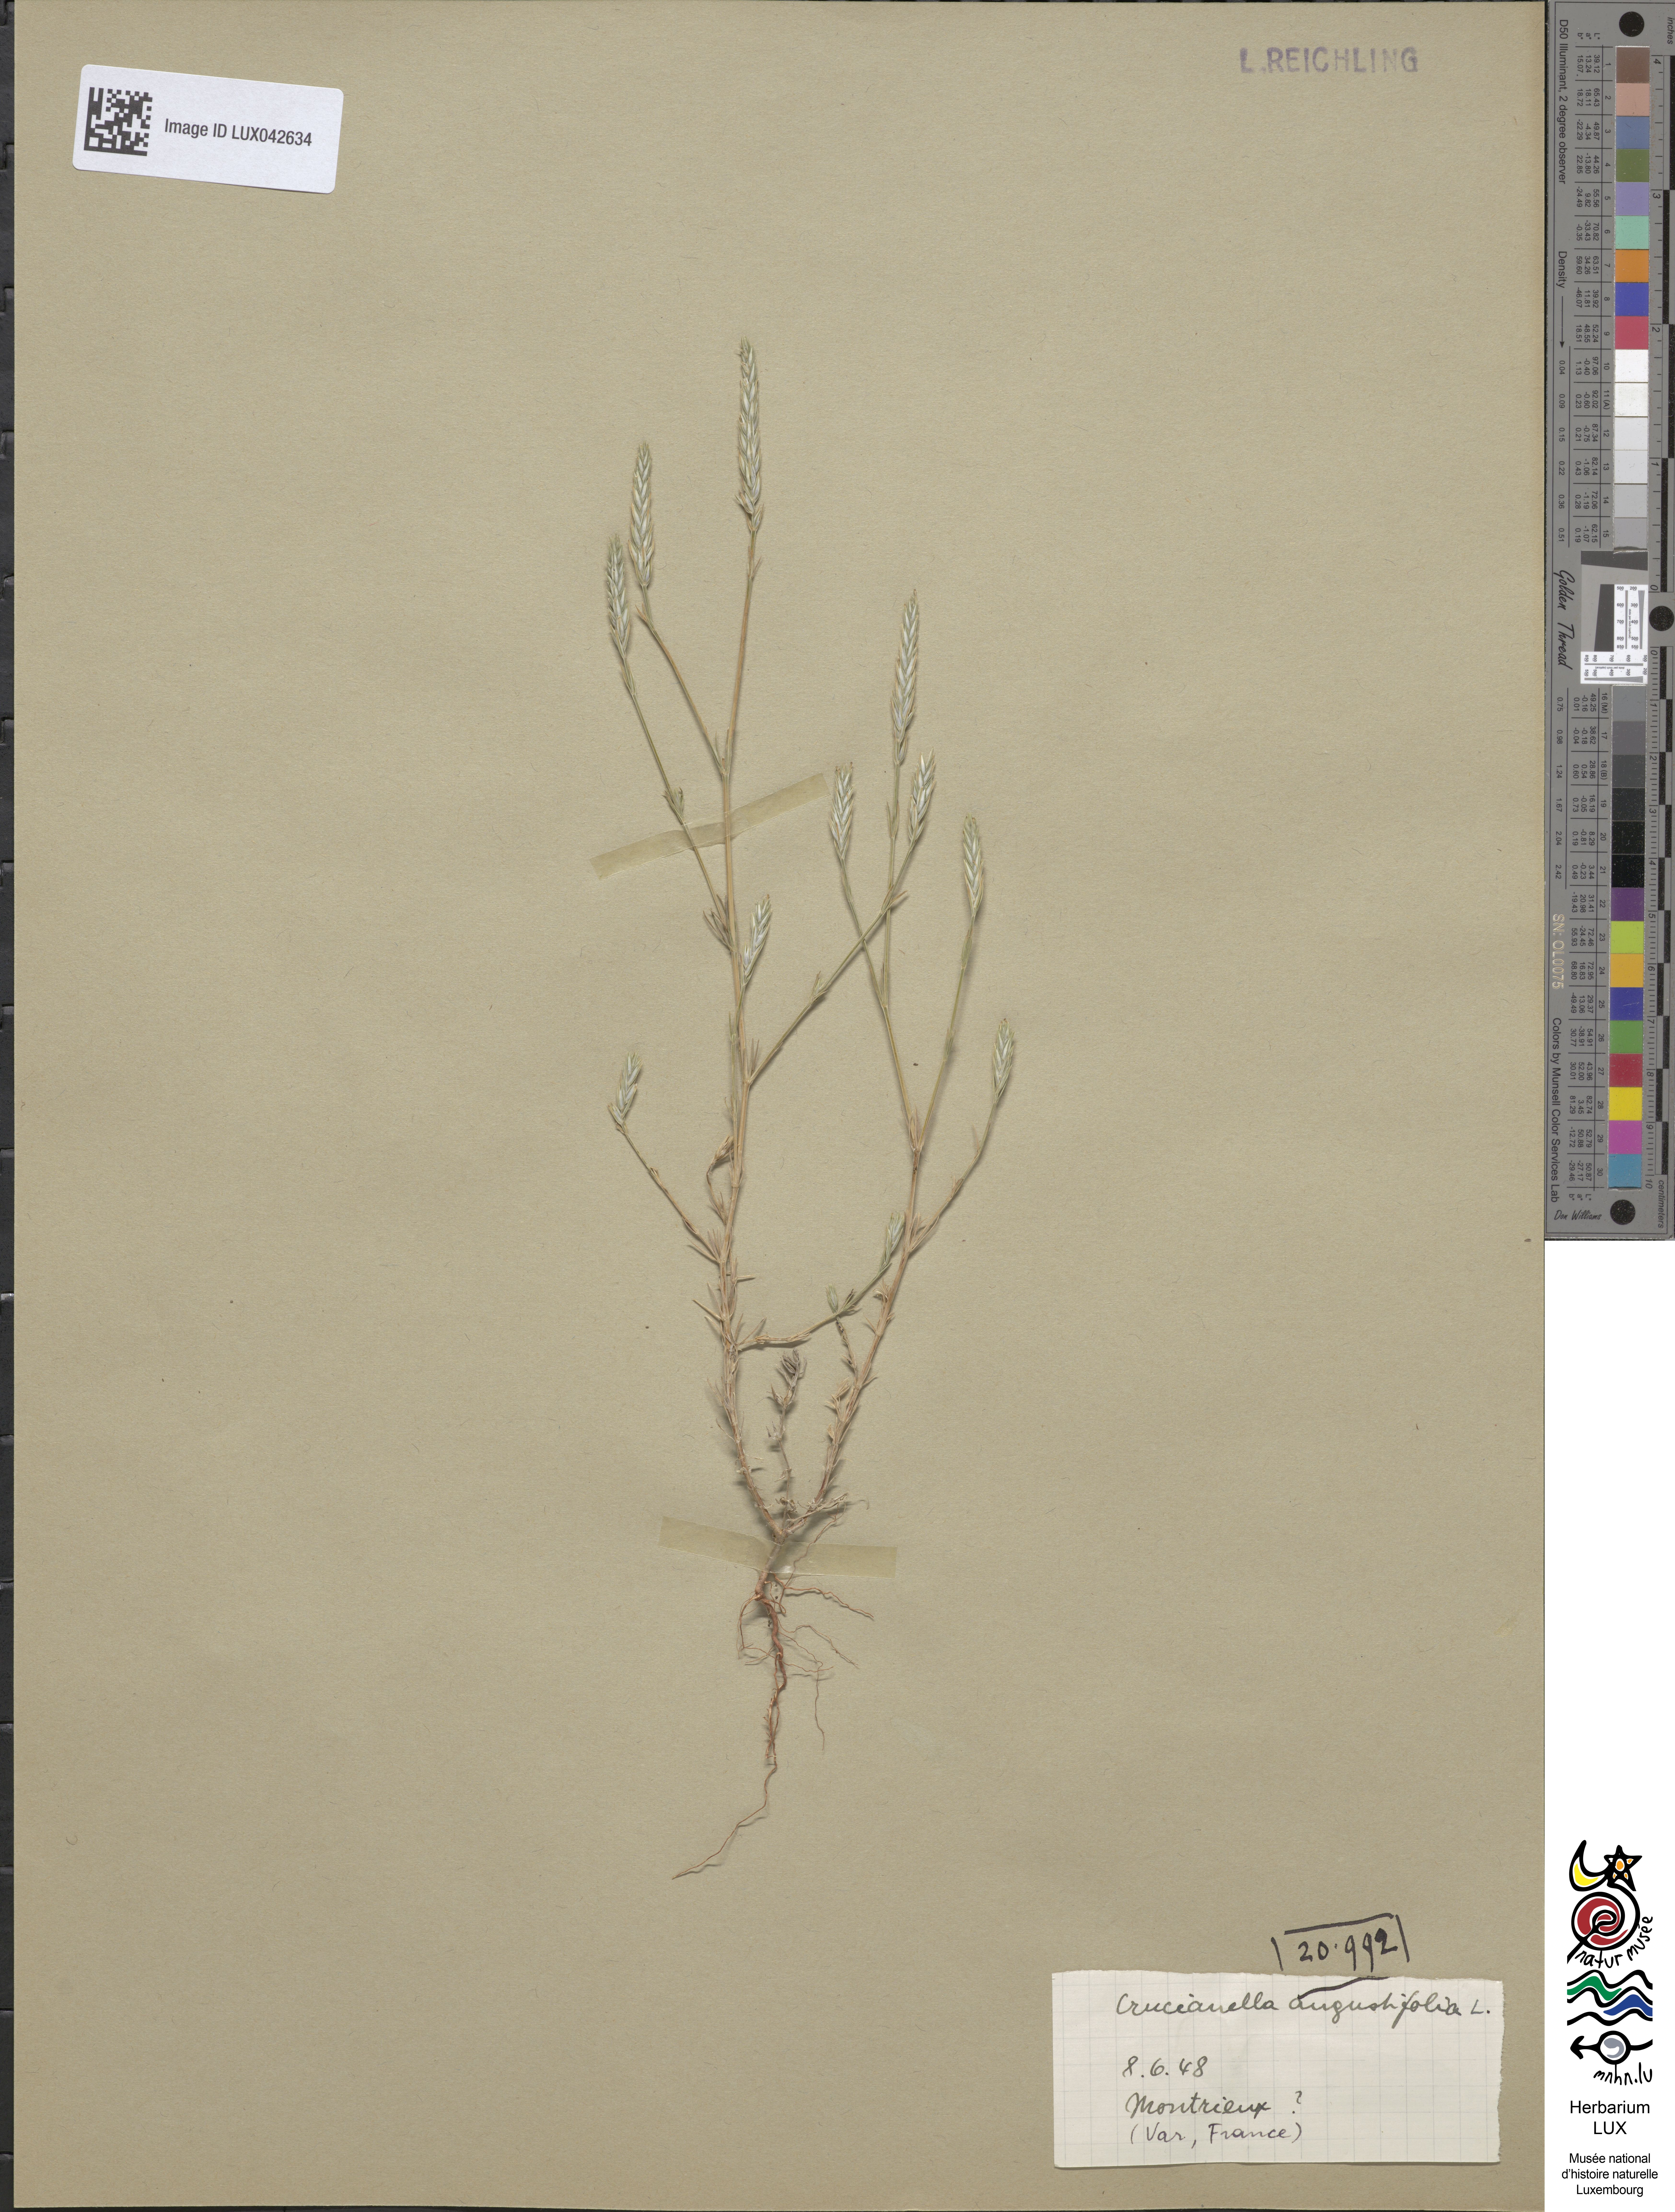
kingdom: Plantae
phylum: Tracheophyta
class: Magnoliopsida
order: Gentianales
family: Rubiaceae
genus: Crucianella
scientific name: Crucianella angustifolia
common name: Narrowleaf crucianella
